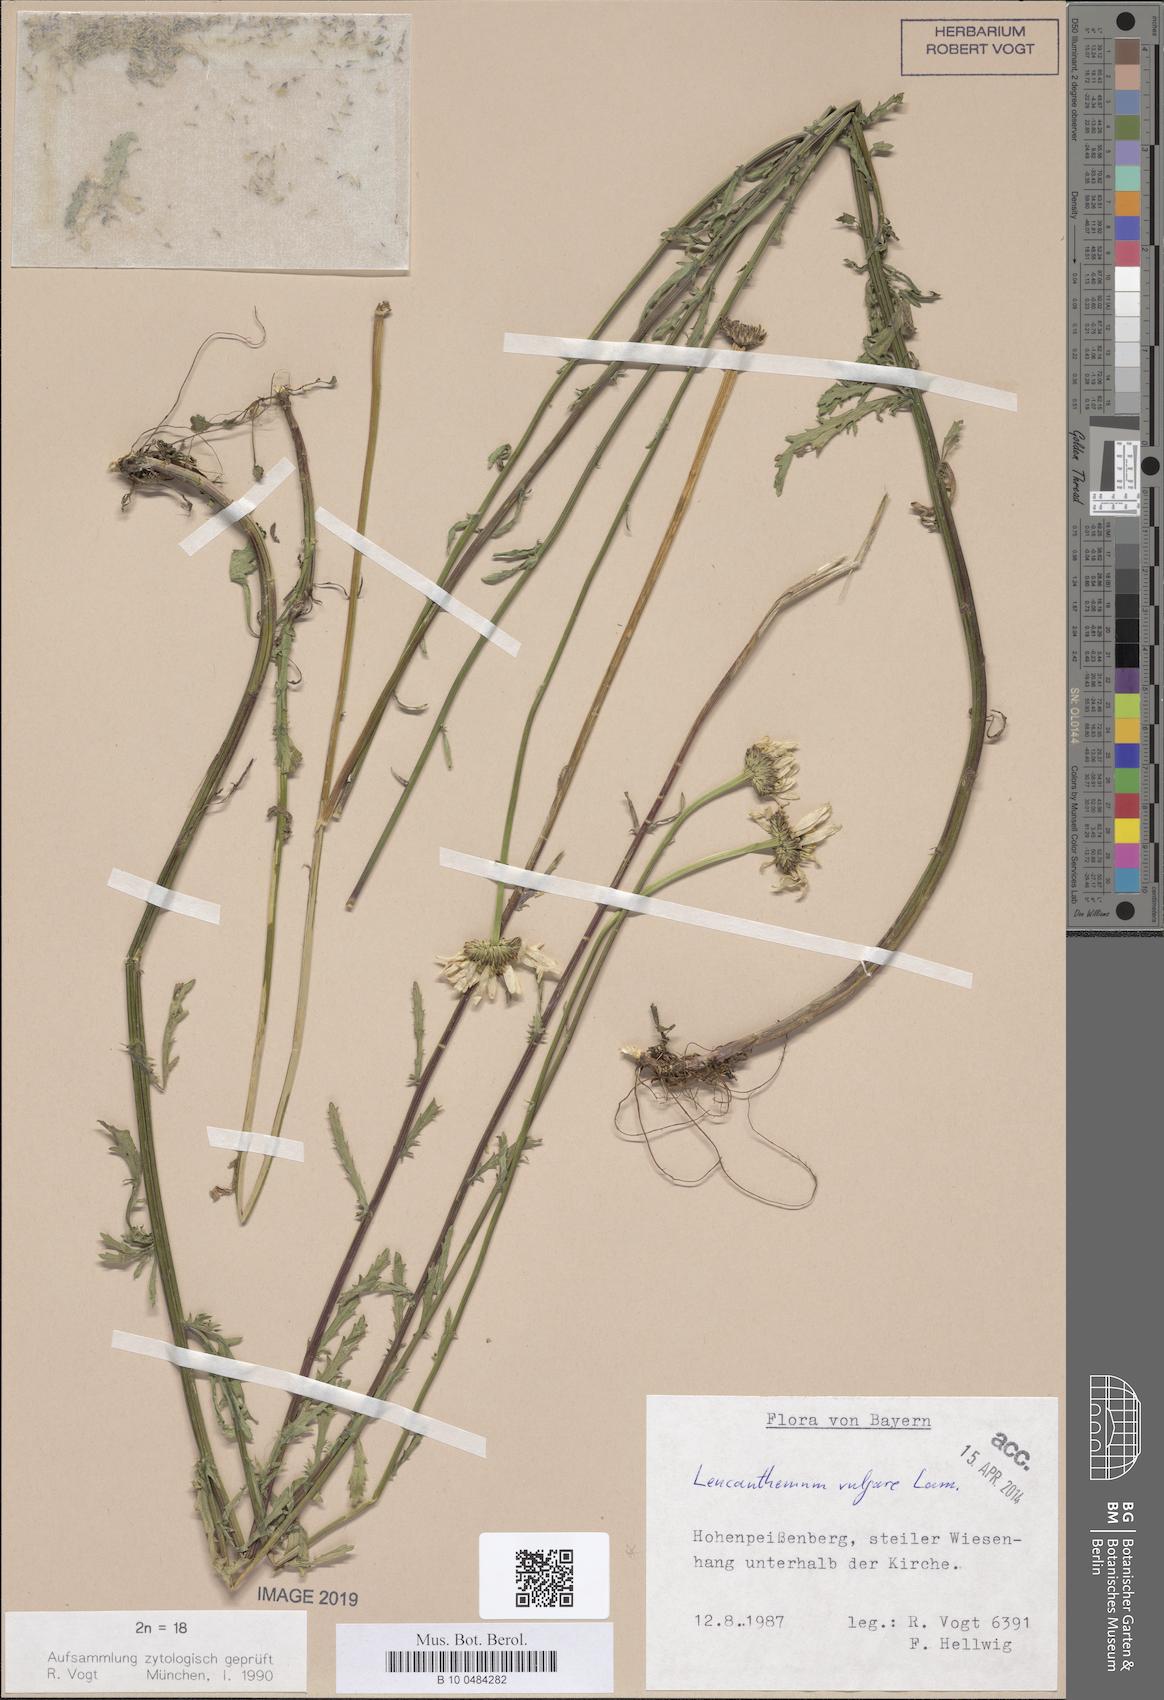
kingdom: Plantae
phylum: Tracheophyta
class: Magnoliopsida
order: Asterales
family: Asteraceae
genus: Leucanthemum
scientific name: Leucanthemum vulgare
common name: Oxeye daisy
